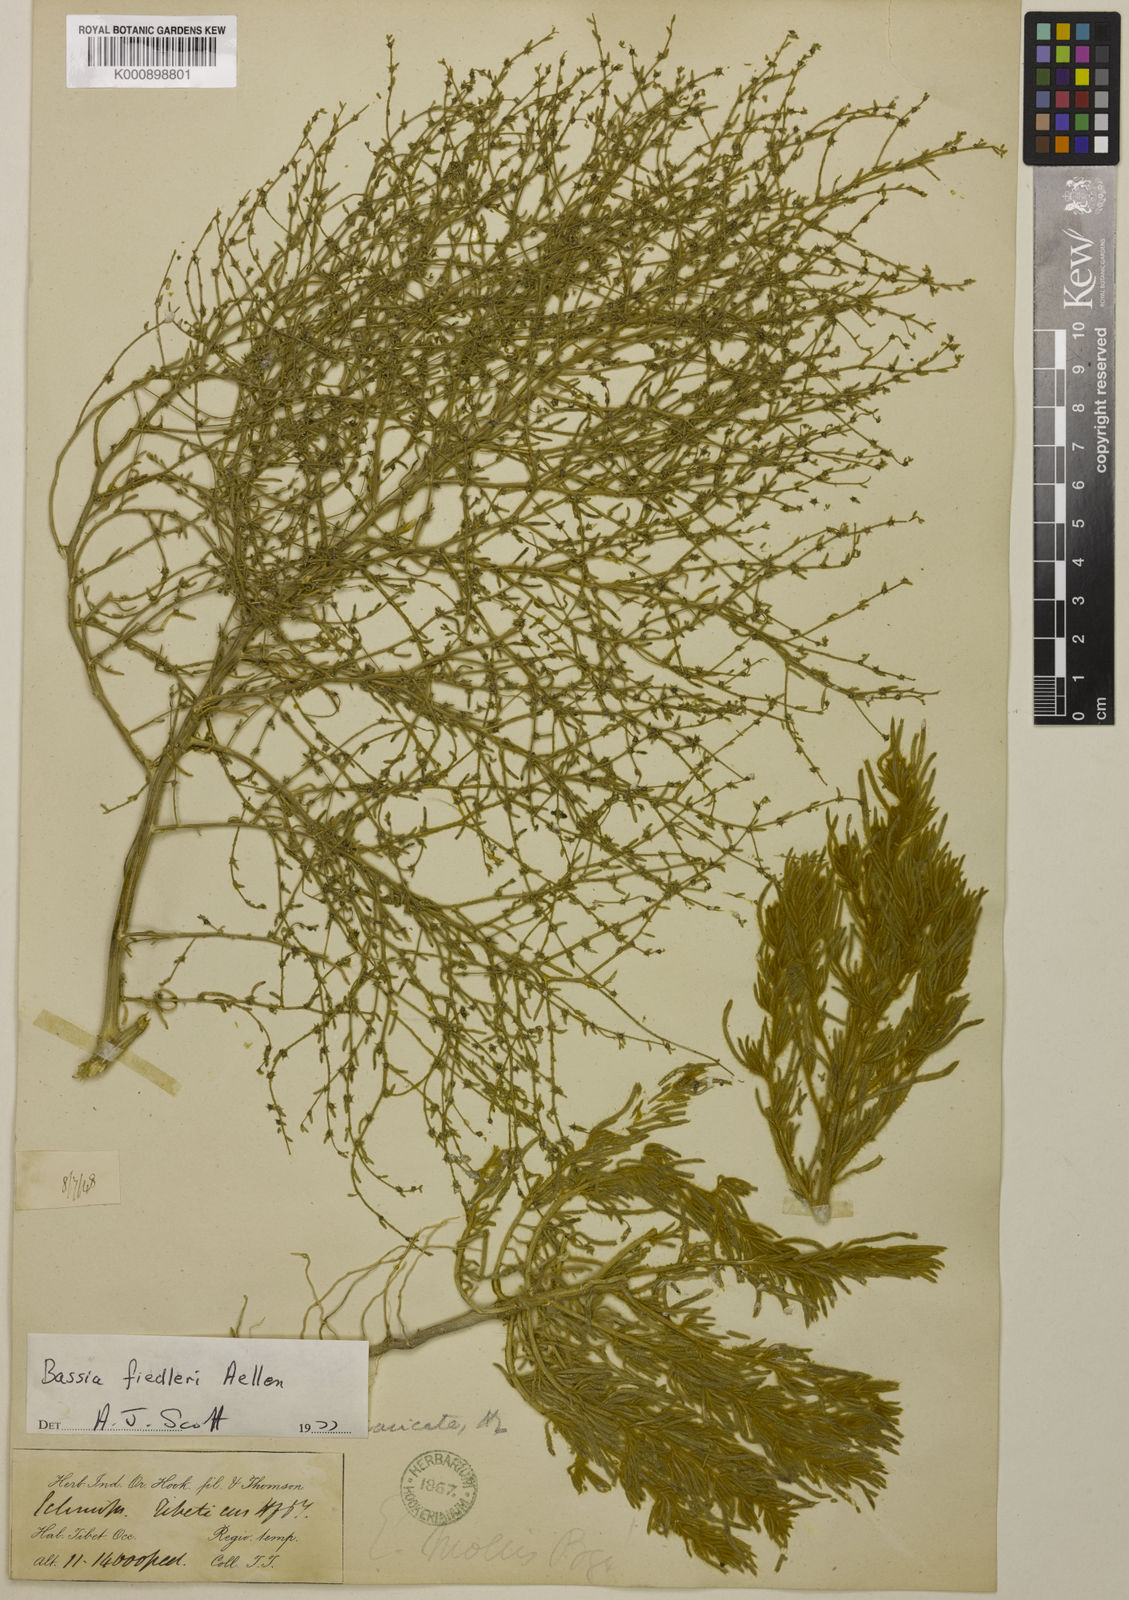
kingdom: Plantae
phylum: Tracheophyta
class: Magnoliopsida
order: Caryophyllales
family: Amaranthaceae
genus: Grubovia
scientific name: Grubovia dasyphylla
